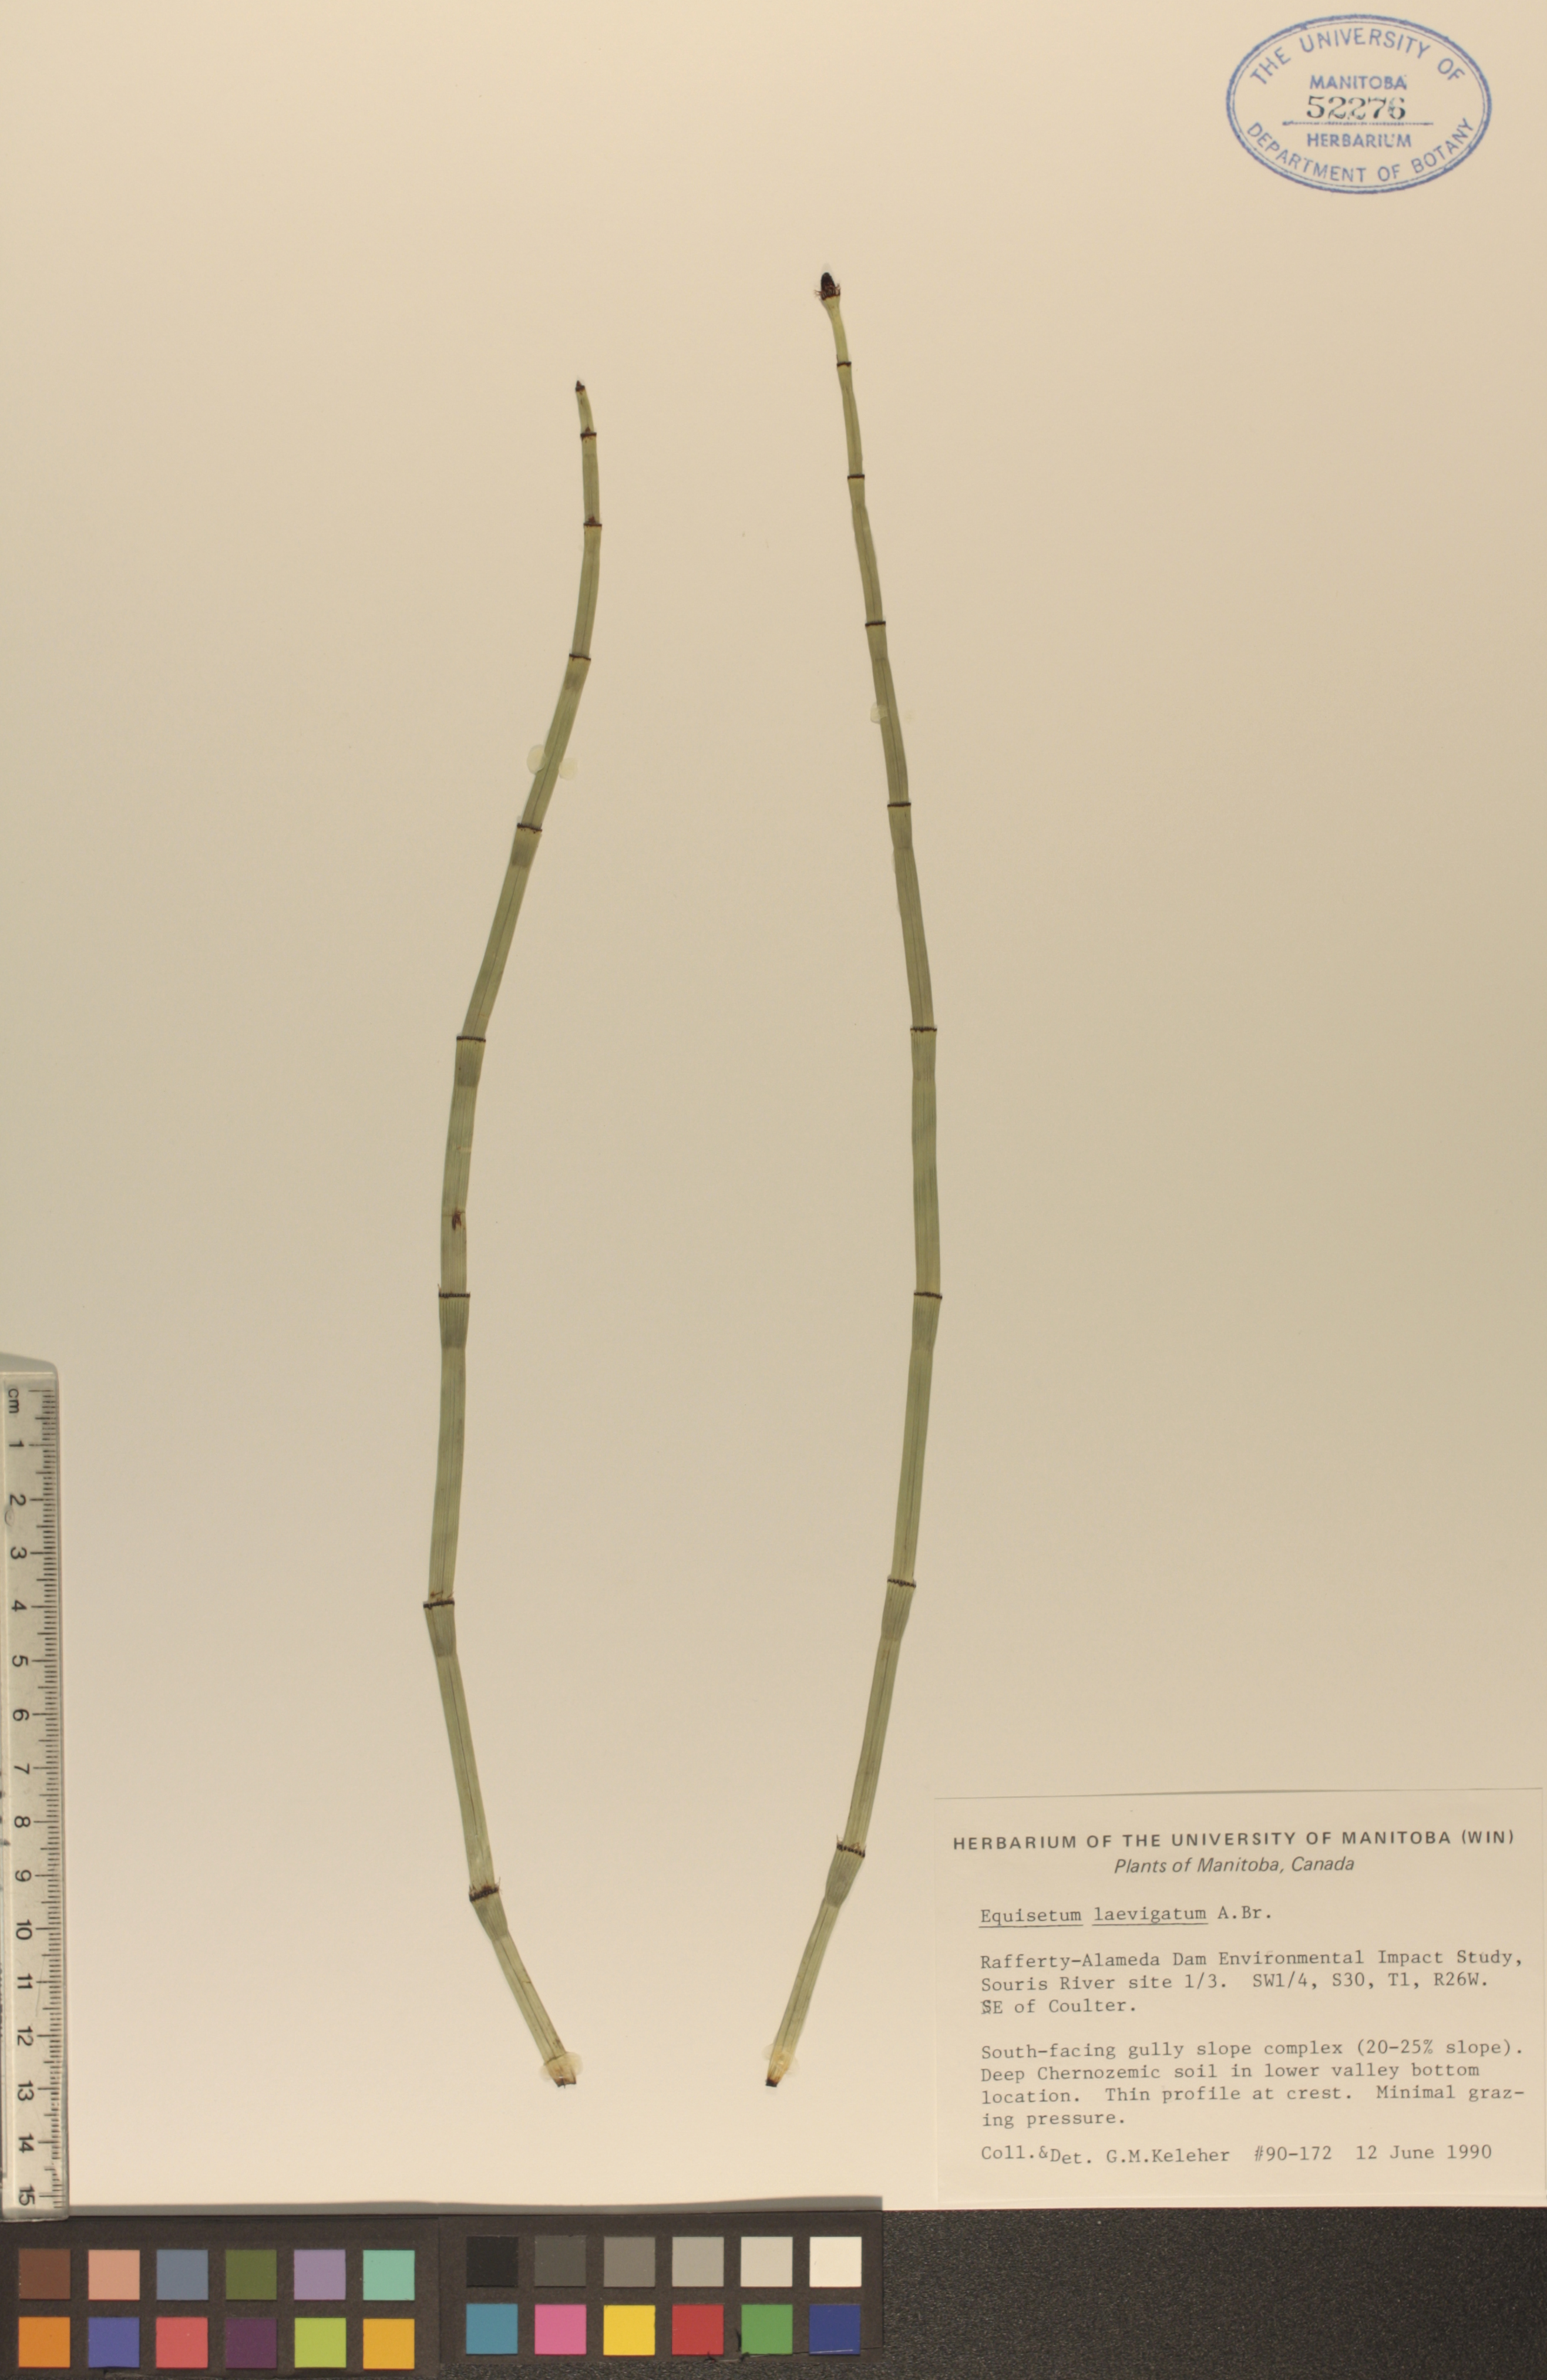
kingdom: Plantae
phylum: Tracheophyta
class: Polypodiopsida
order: Equisetales
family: Equisetaceae
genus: Equisetum
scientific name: Equisetum laevigatum
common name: Smooth scouring-rush
